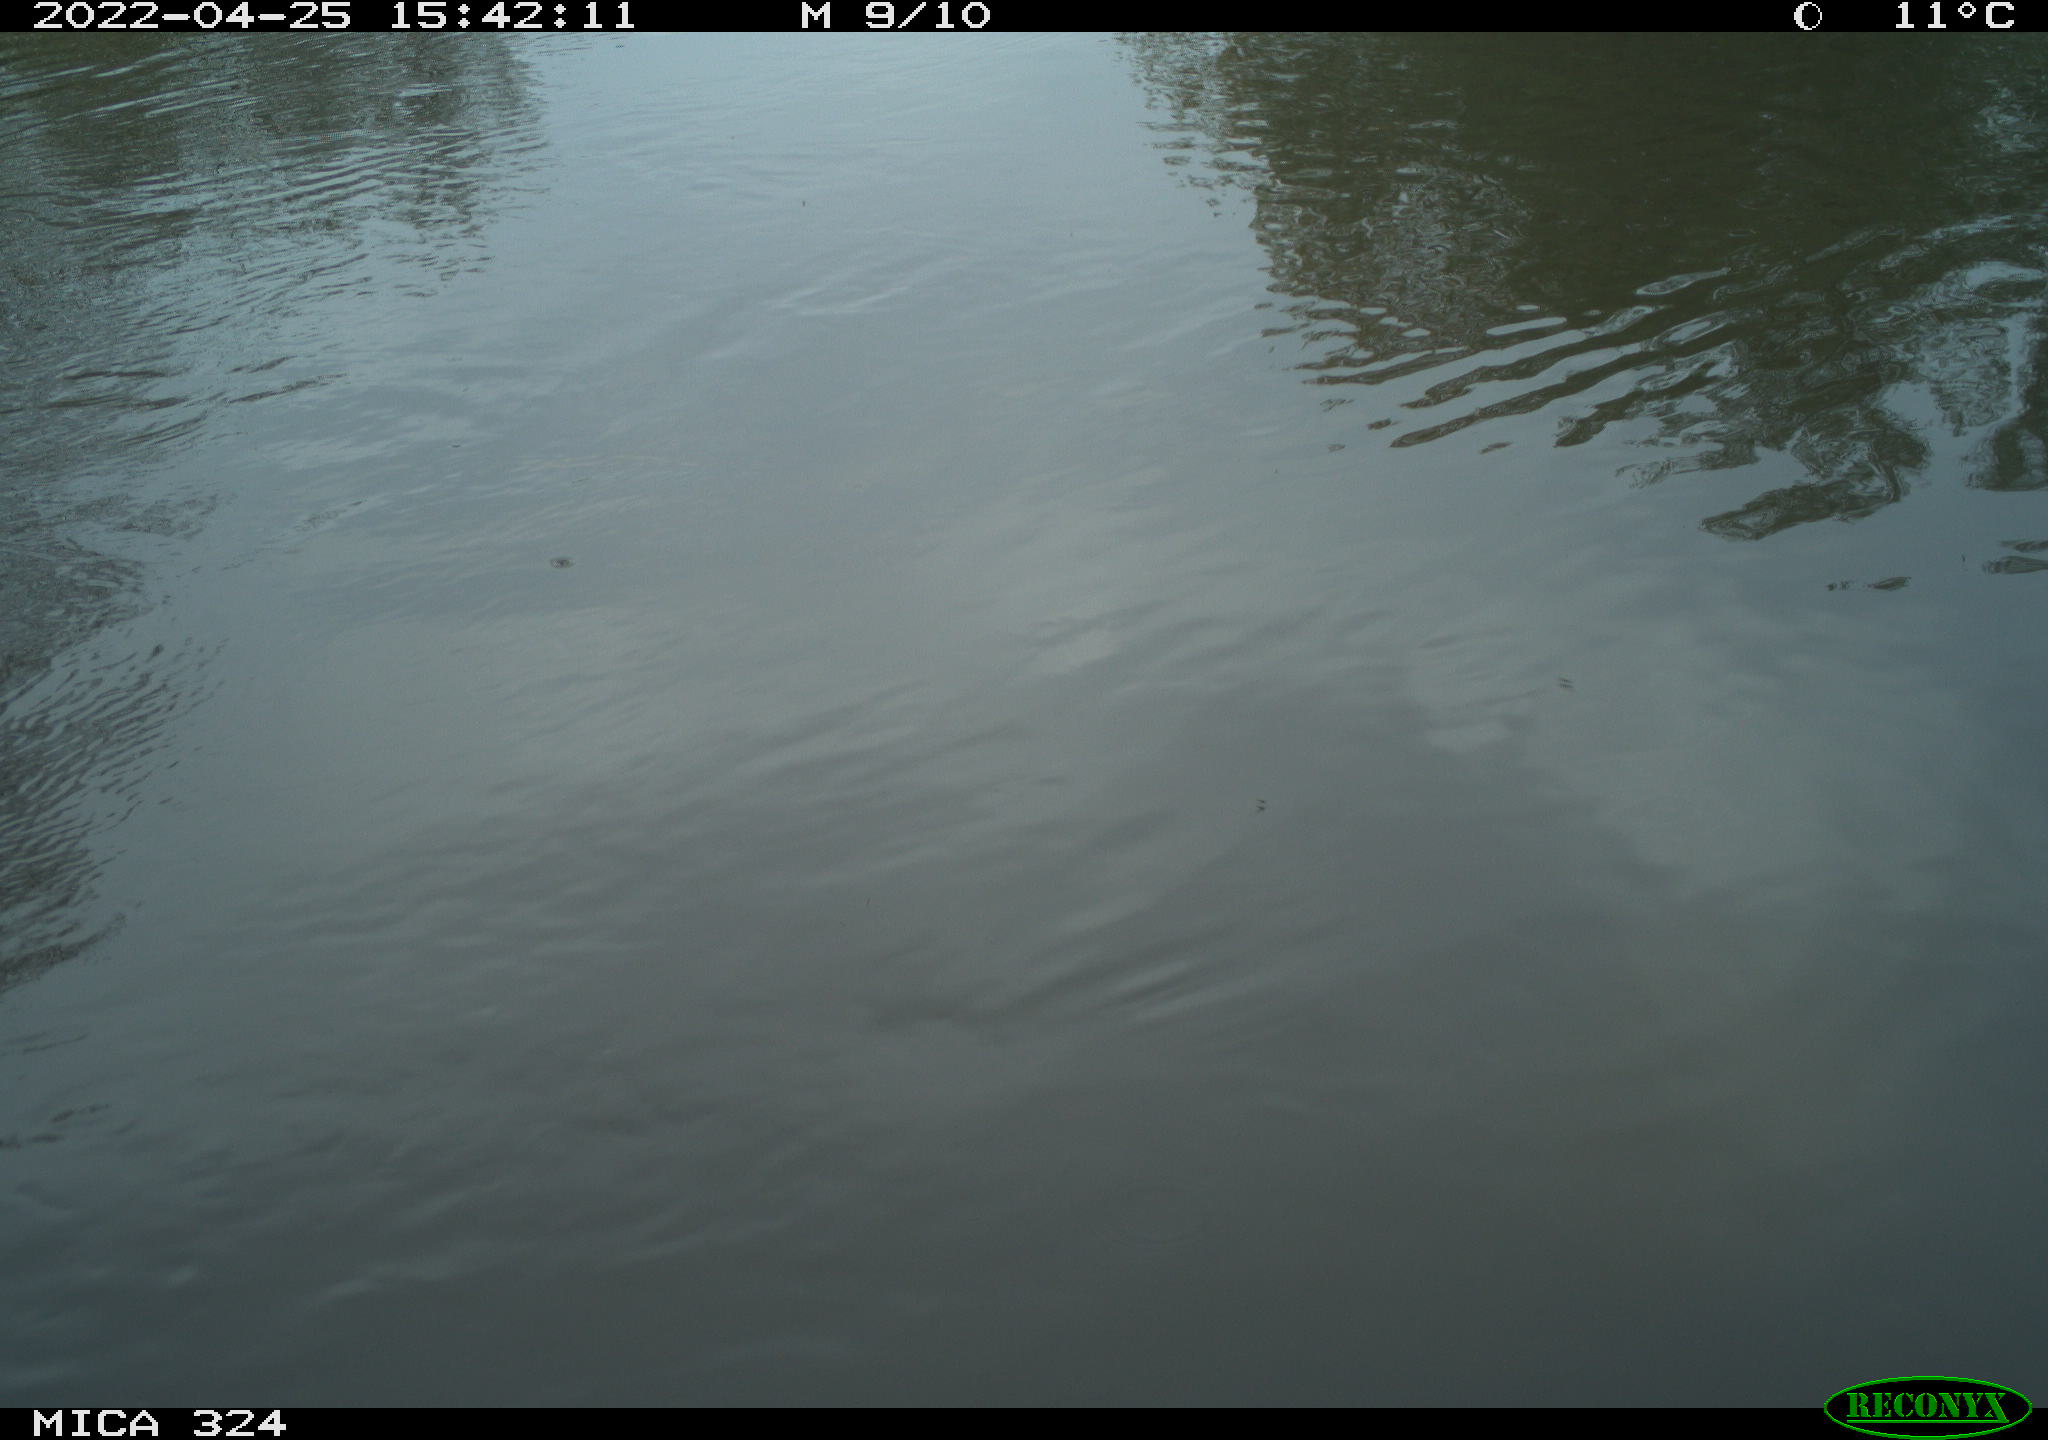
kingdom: Animalia
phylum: Chordata
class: Aves
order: Gruiformes
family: Rallidae
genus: Gallinula
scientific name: Gallinula chloropus
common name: Common moorhen
